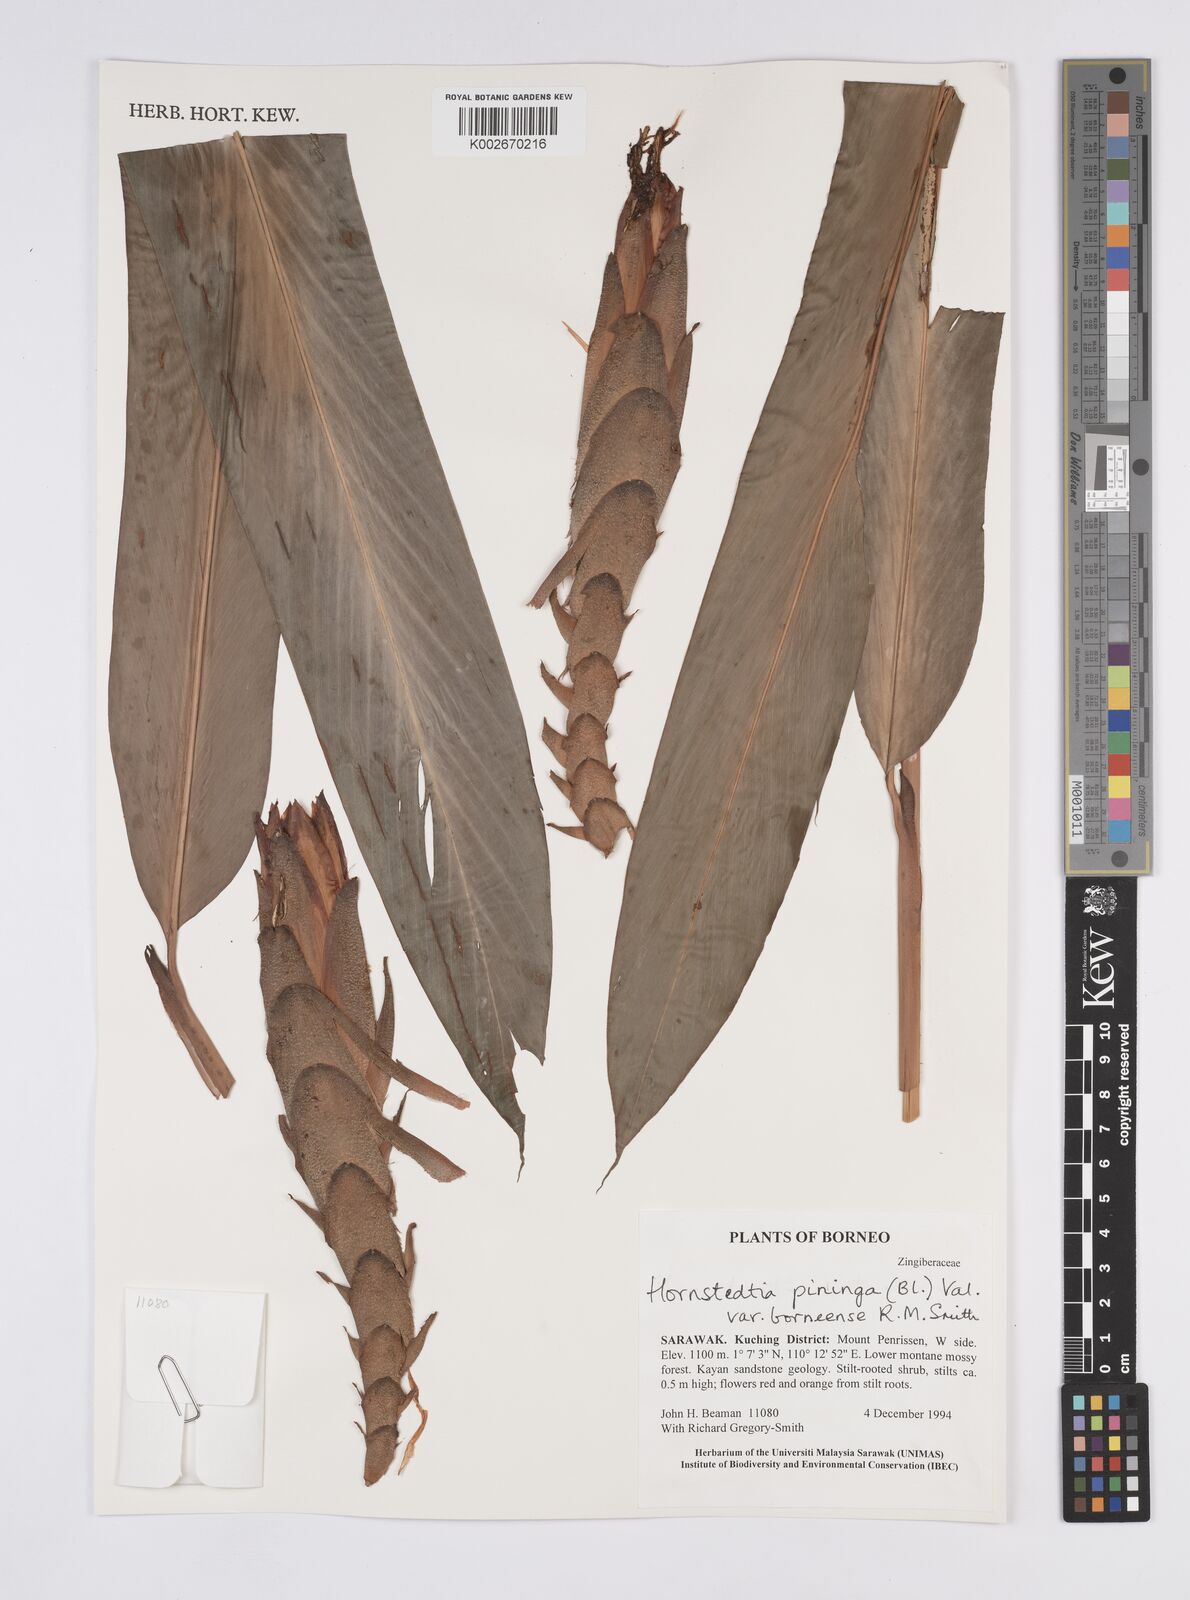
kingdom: Plantae
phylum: Tracheophyta
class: Liliopsida
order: Zingiberales
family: Zingiberaceae
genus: Hornstedtia
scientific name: Hornstedtia pininga
